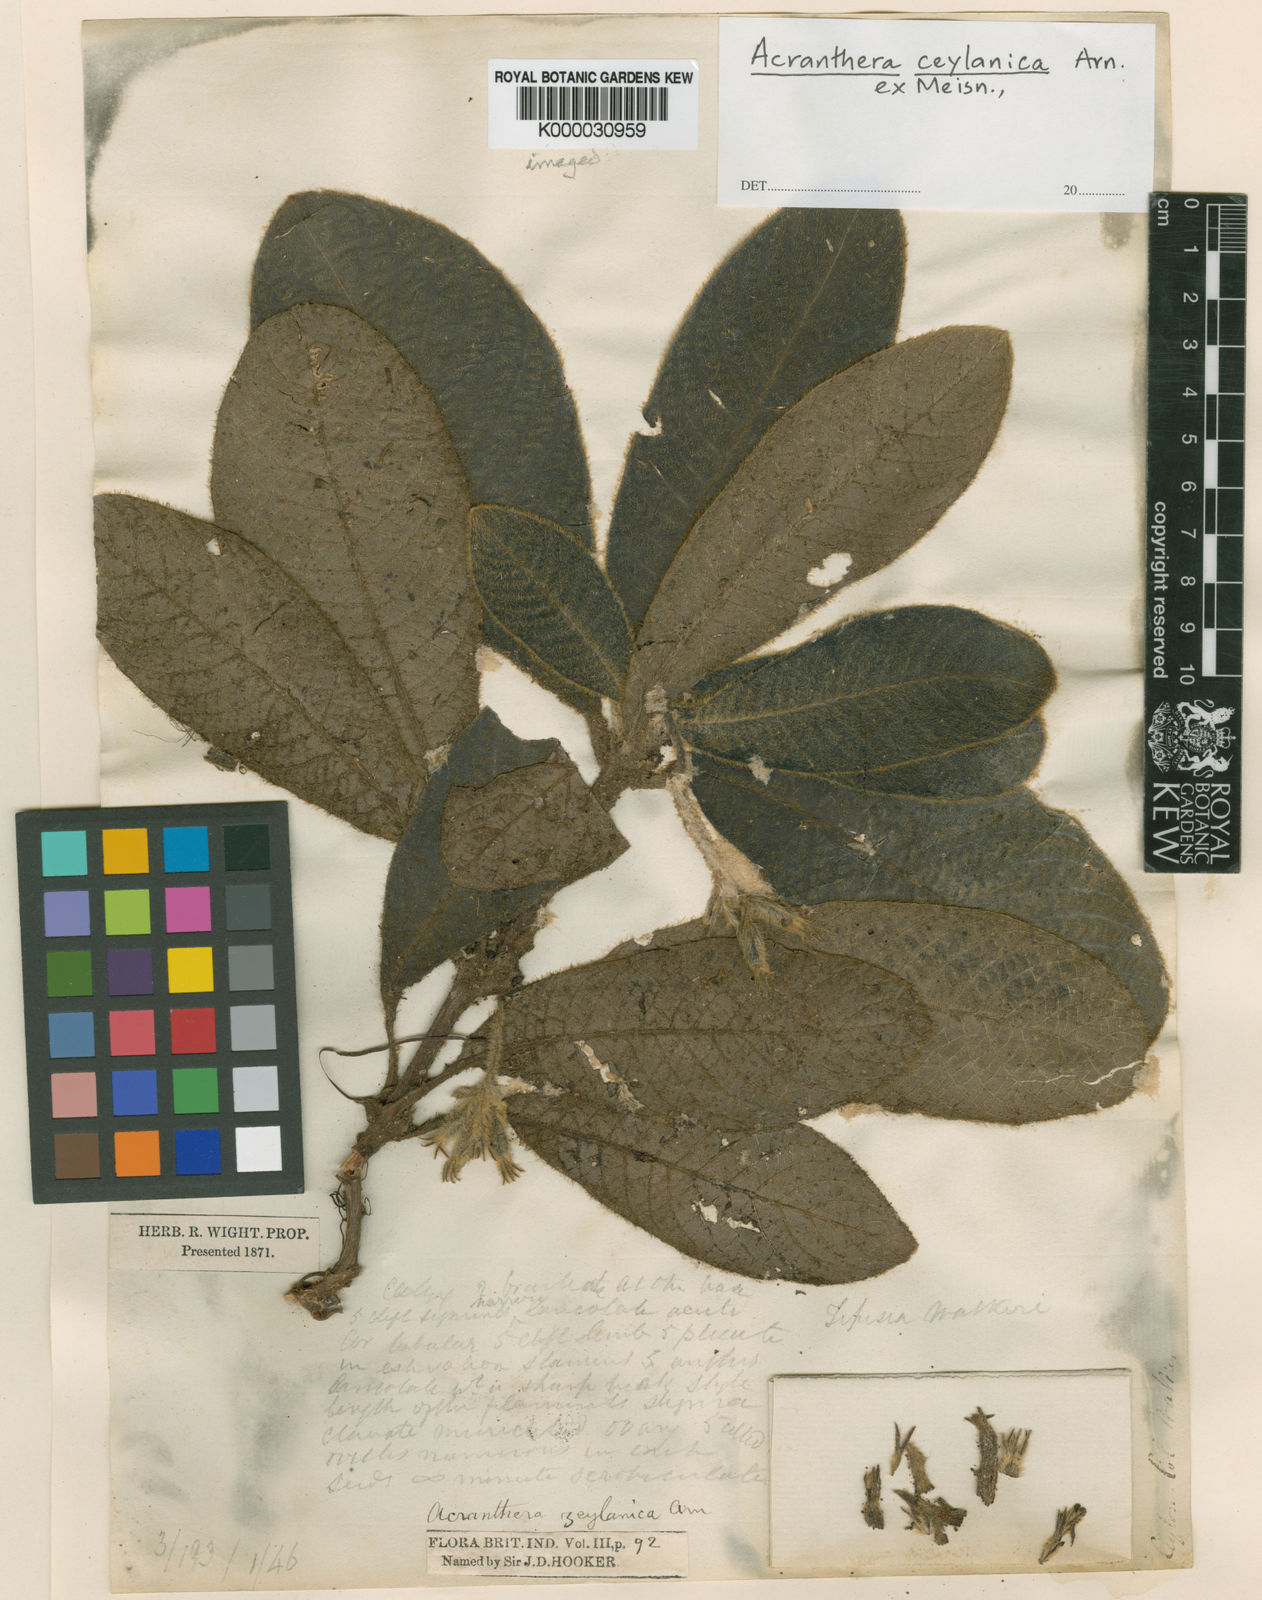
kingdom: Plantae
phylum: Tracheophyta
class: Magnoliopsida
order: Gentianales
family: Rubiaceae
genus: Acranthera
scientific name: Acranthera ceylanica
